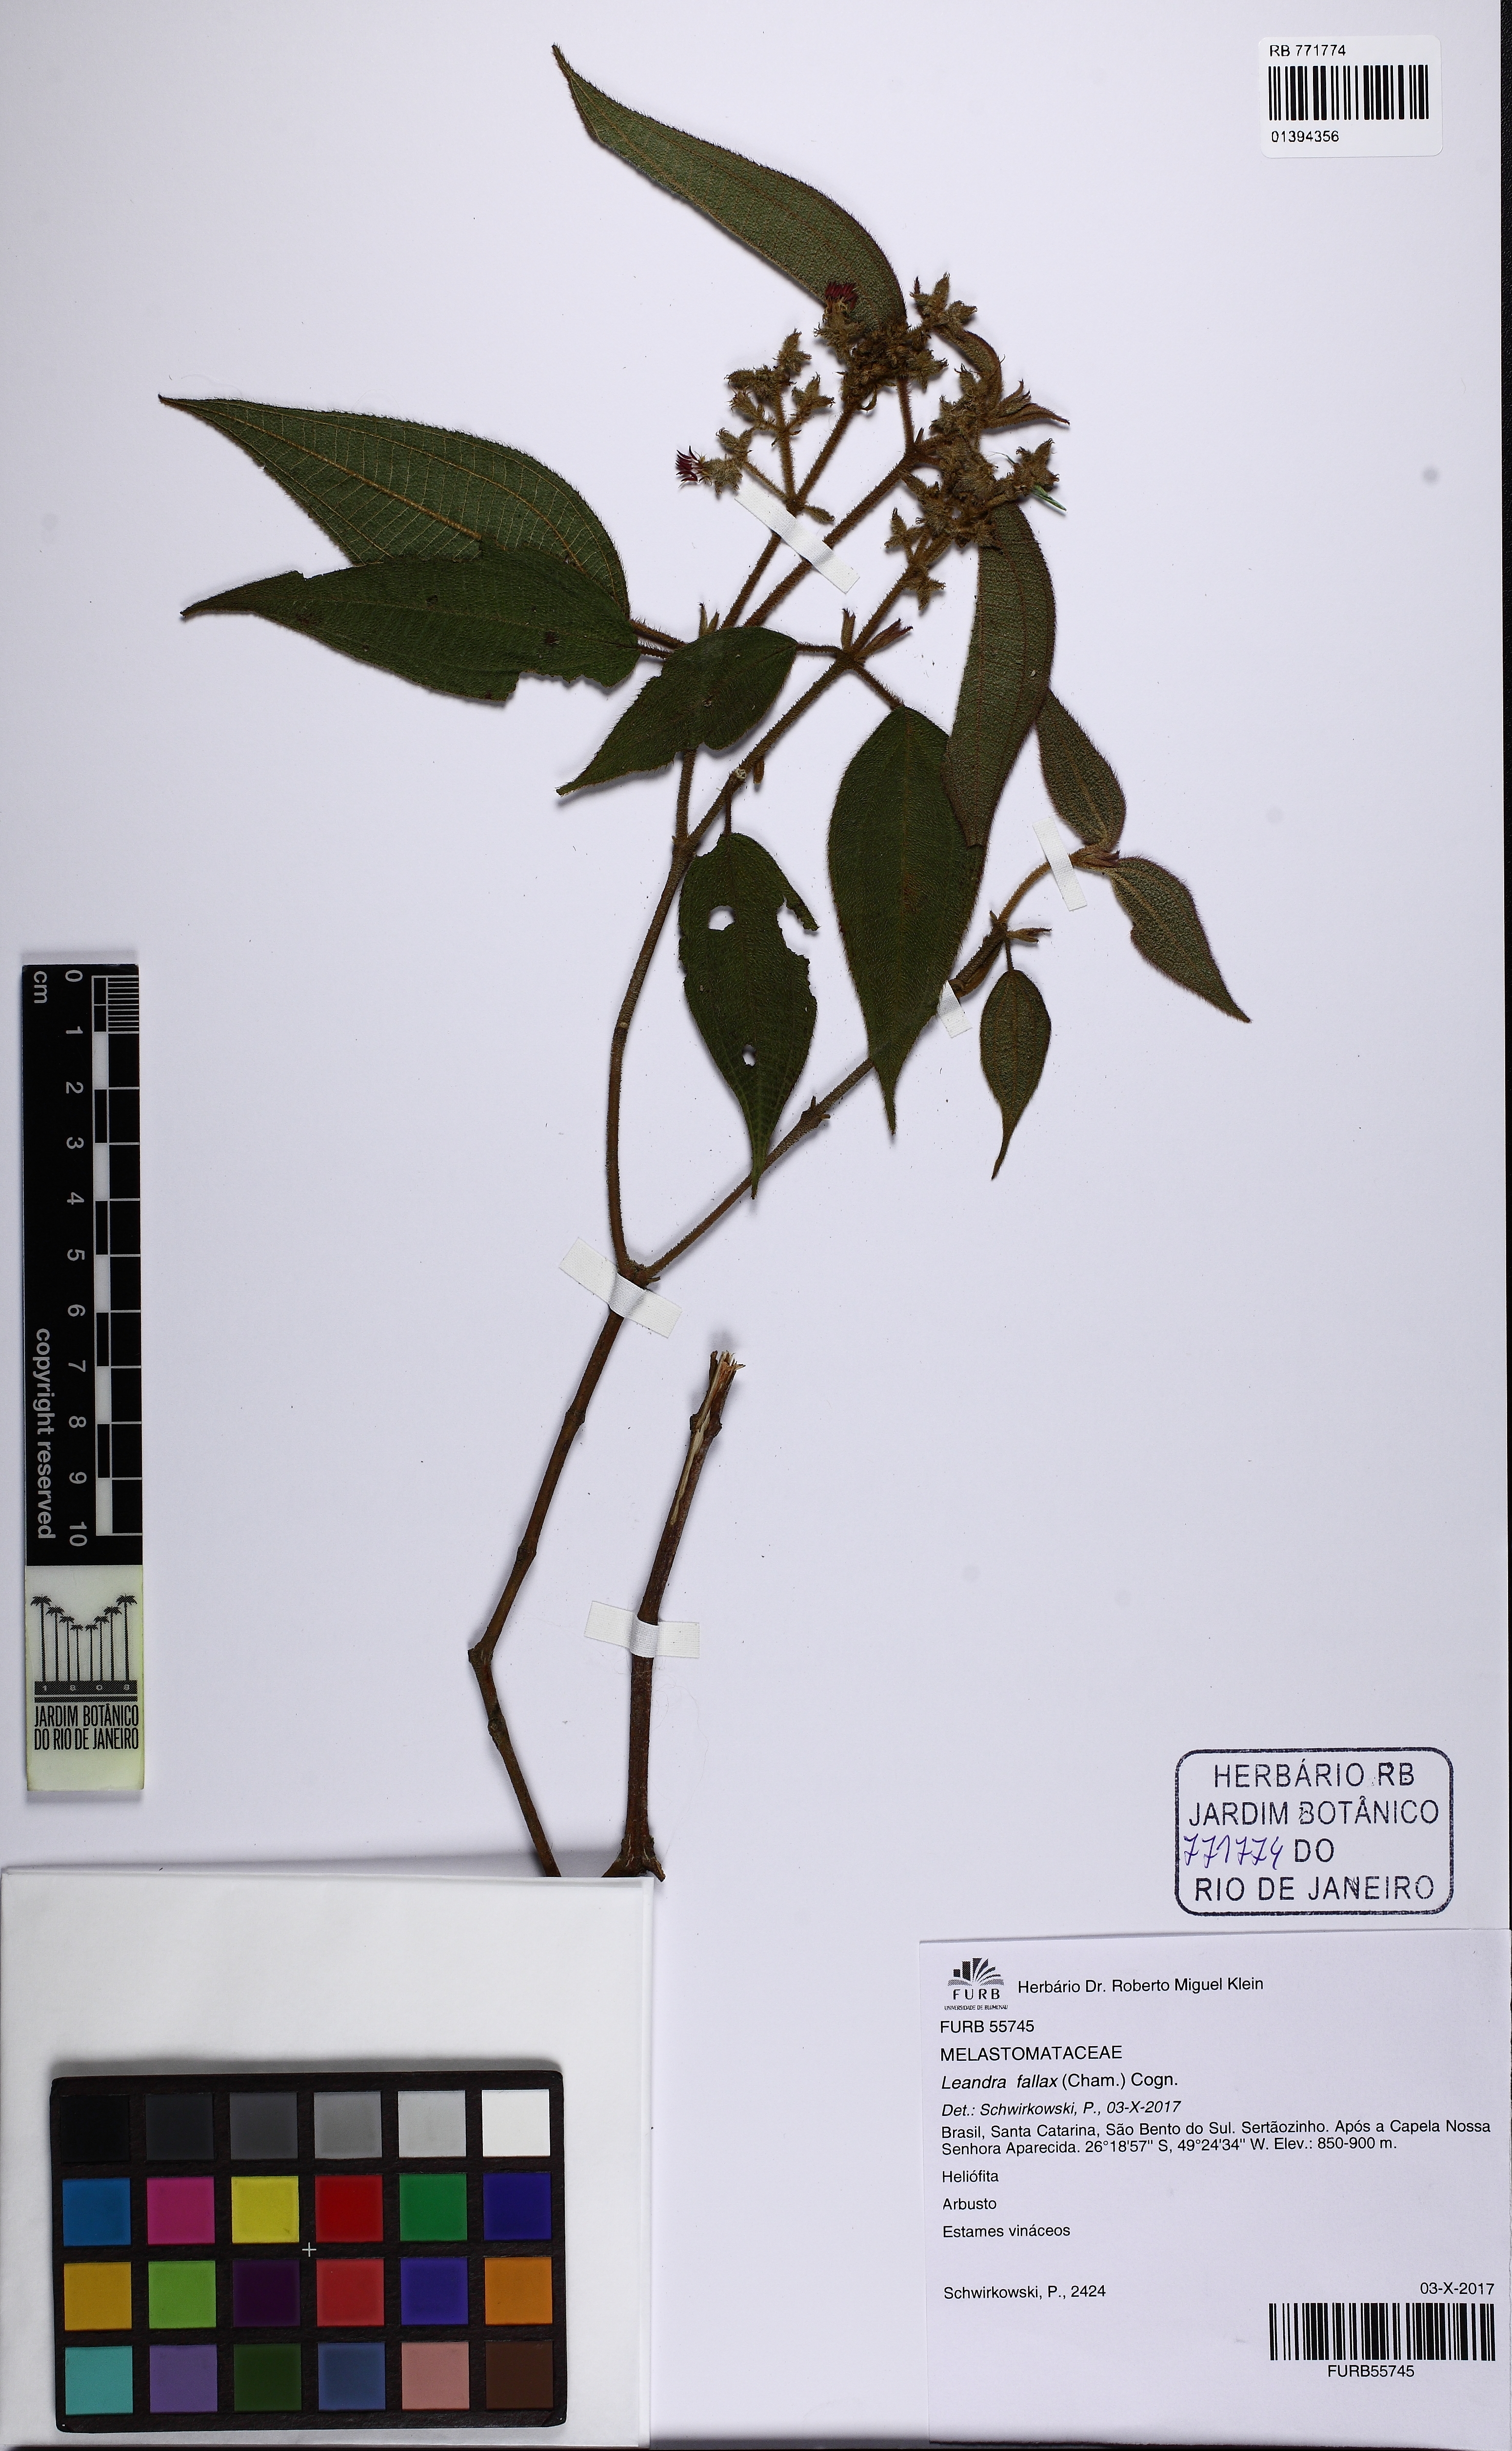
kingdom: Plantae
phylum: Tracheophyta
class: Magnoliopsida
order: Myrtales
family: Melastomataceae
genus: Miconia
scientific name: Miconia leafallax
